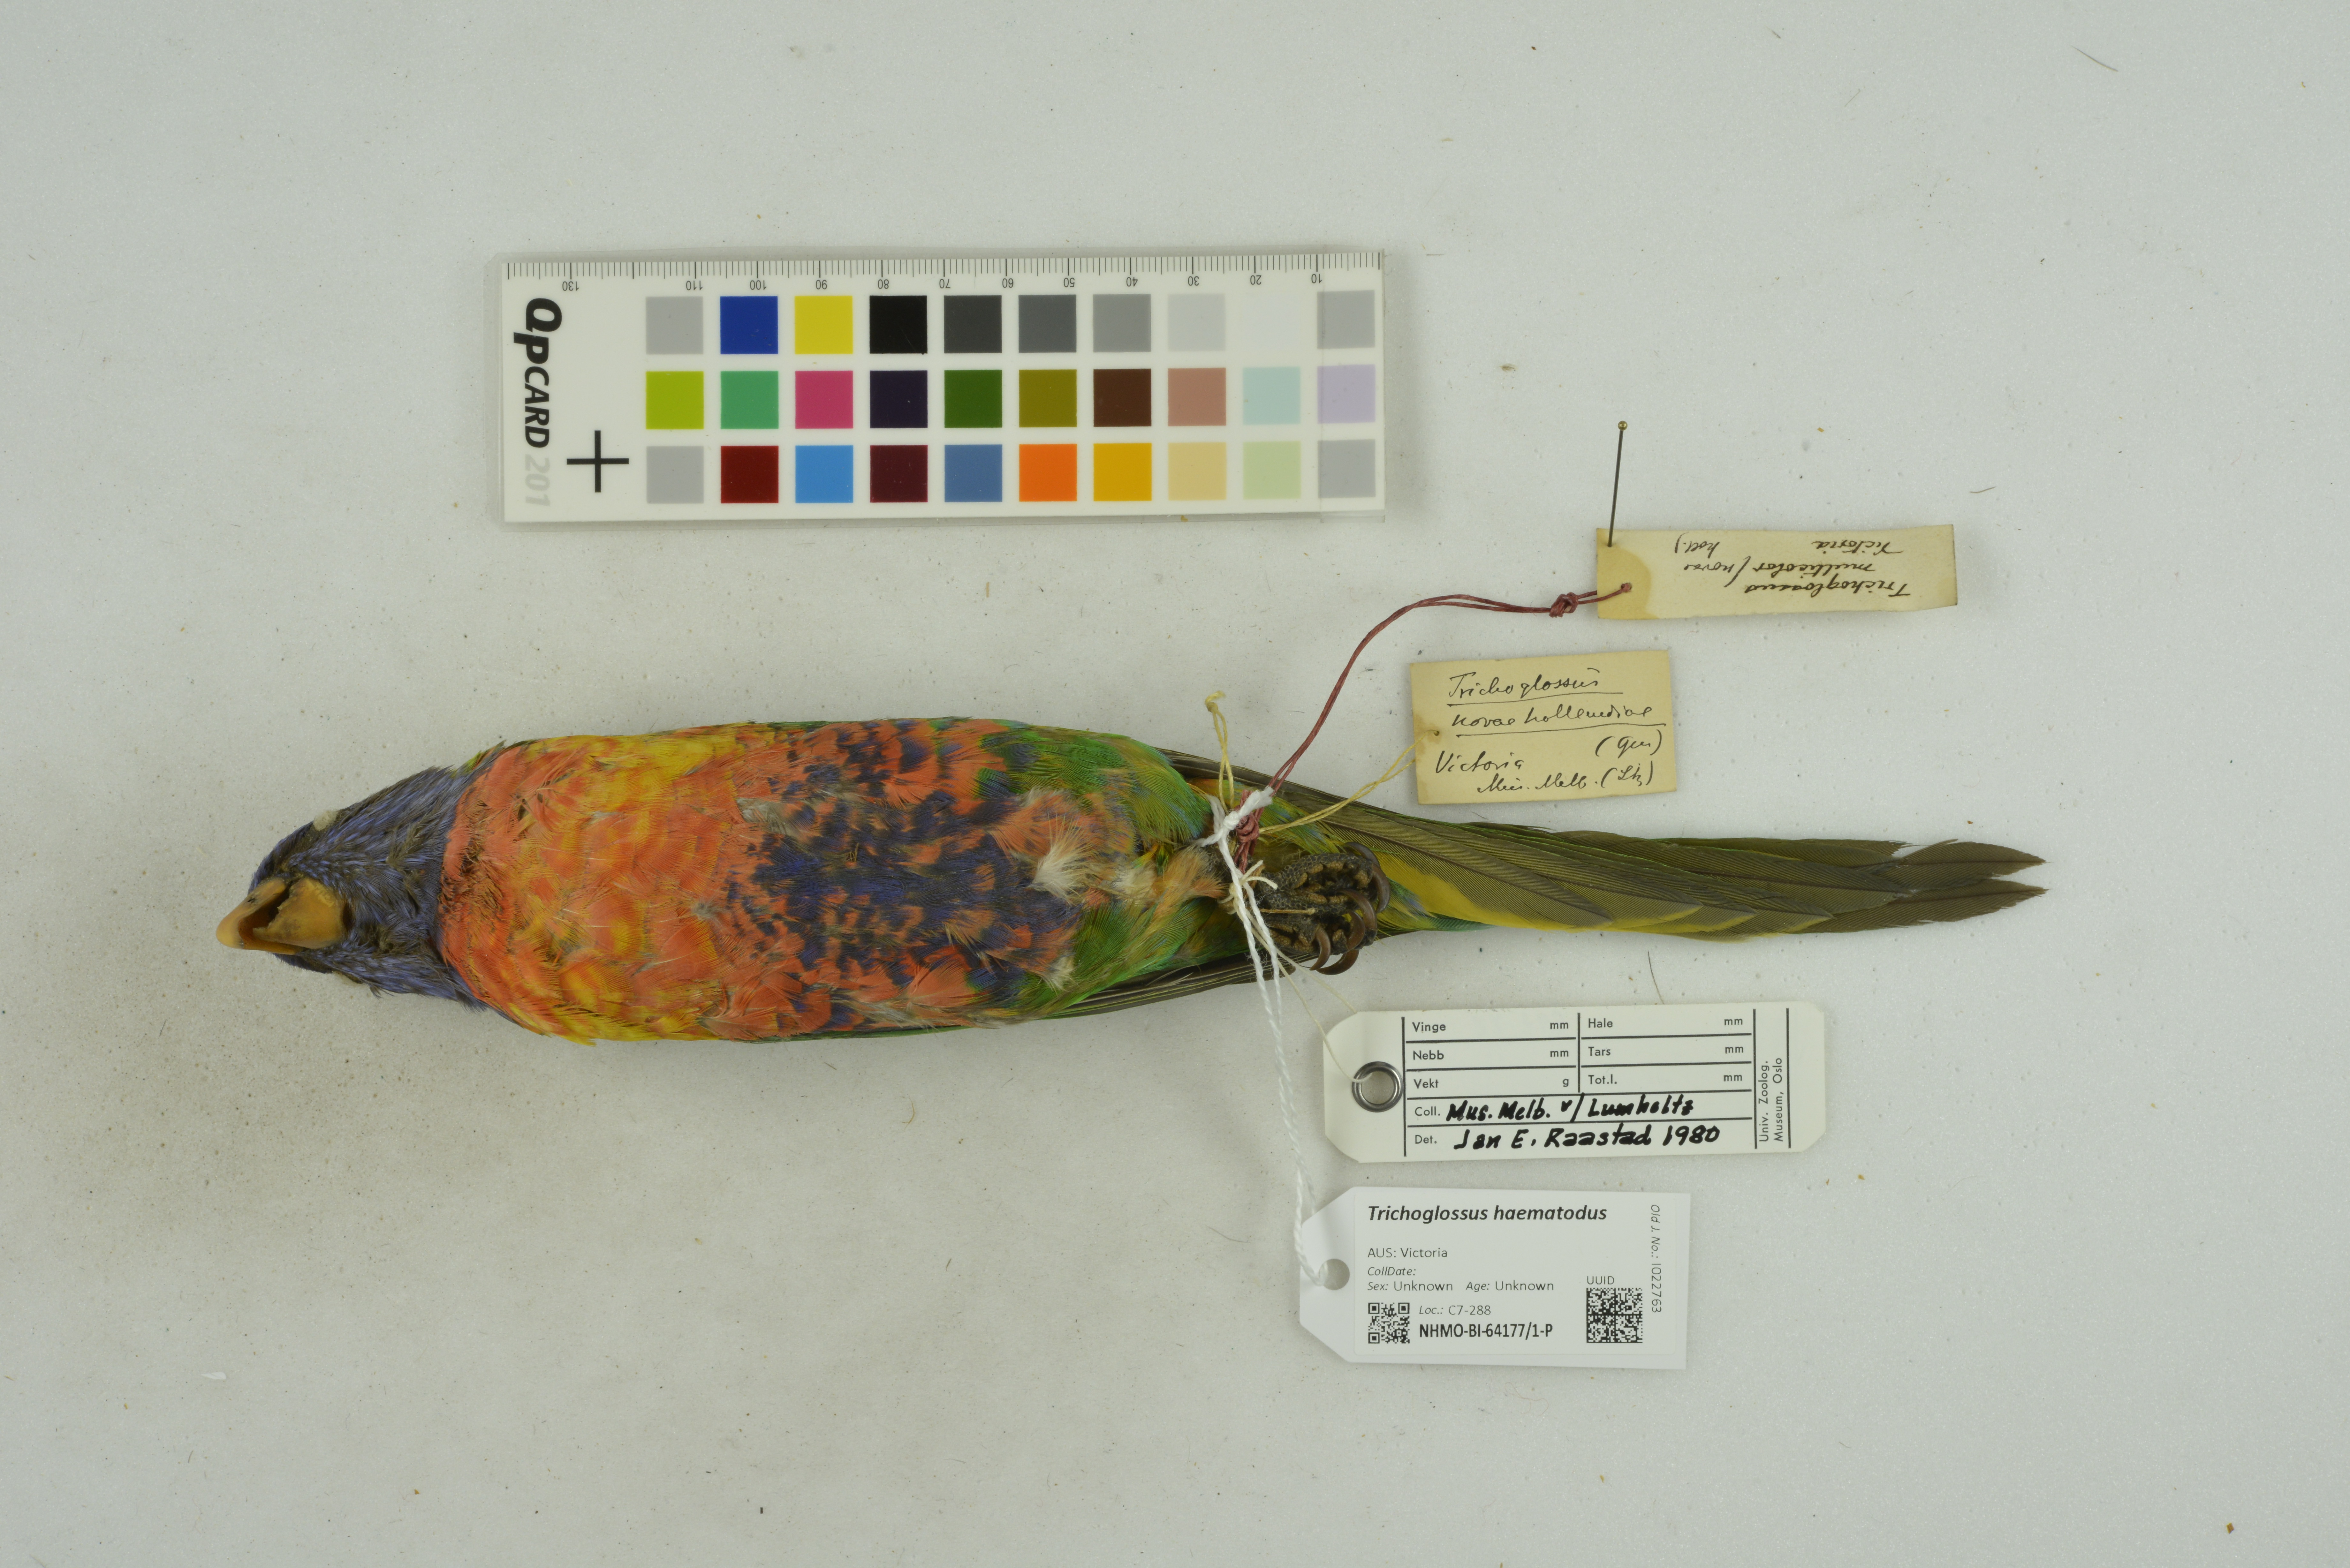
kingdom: Animalia
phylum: Chordata
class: Aves
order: Psittaciformes
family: Psittacidae
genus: Trichoglossus
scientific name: Trichoglossus haematodus
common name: Coconut lorikeet
